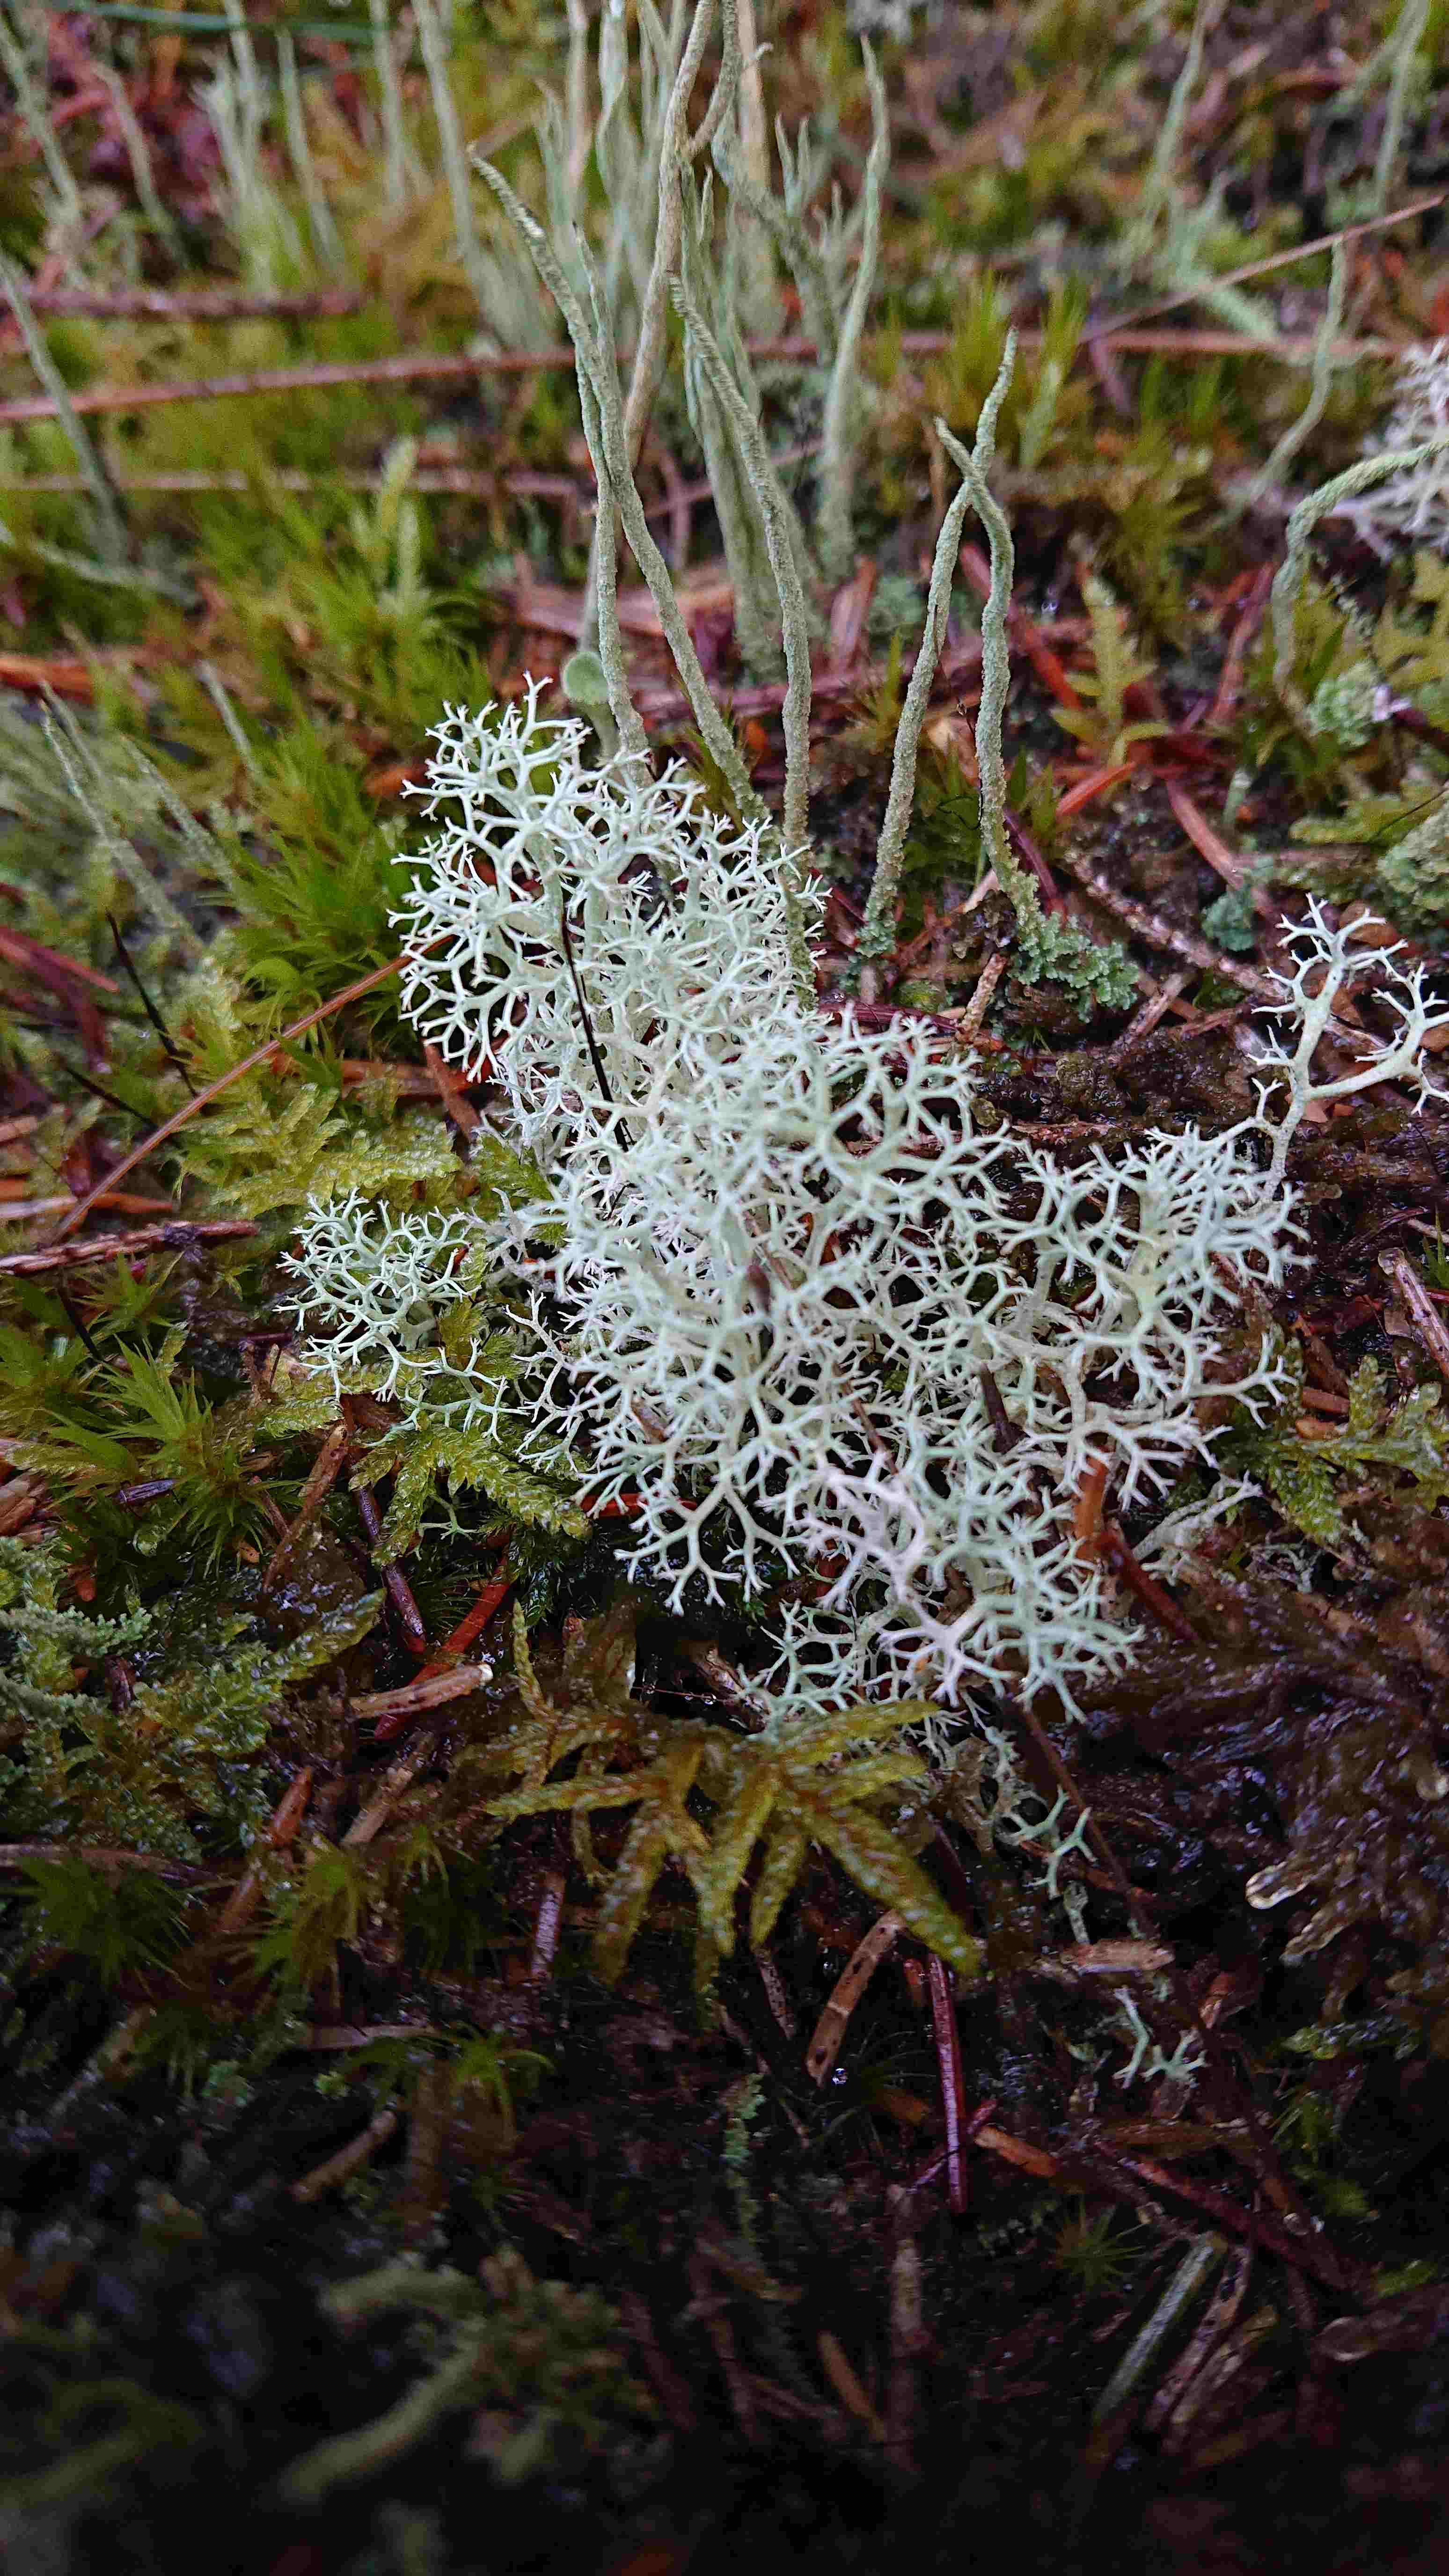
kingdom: Fungi
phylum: Ascomycota
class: Lecanoromycetes
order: Lecanorales
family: Cladoniaceae
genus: Cladonia
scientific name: Cladonia portentosa
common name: hede-rensdyrlav
